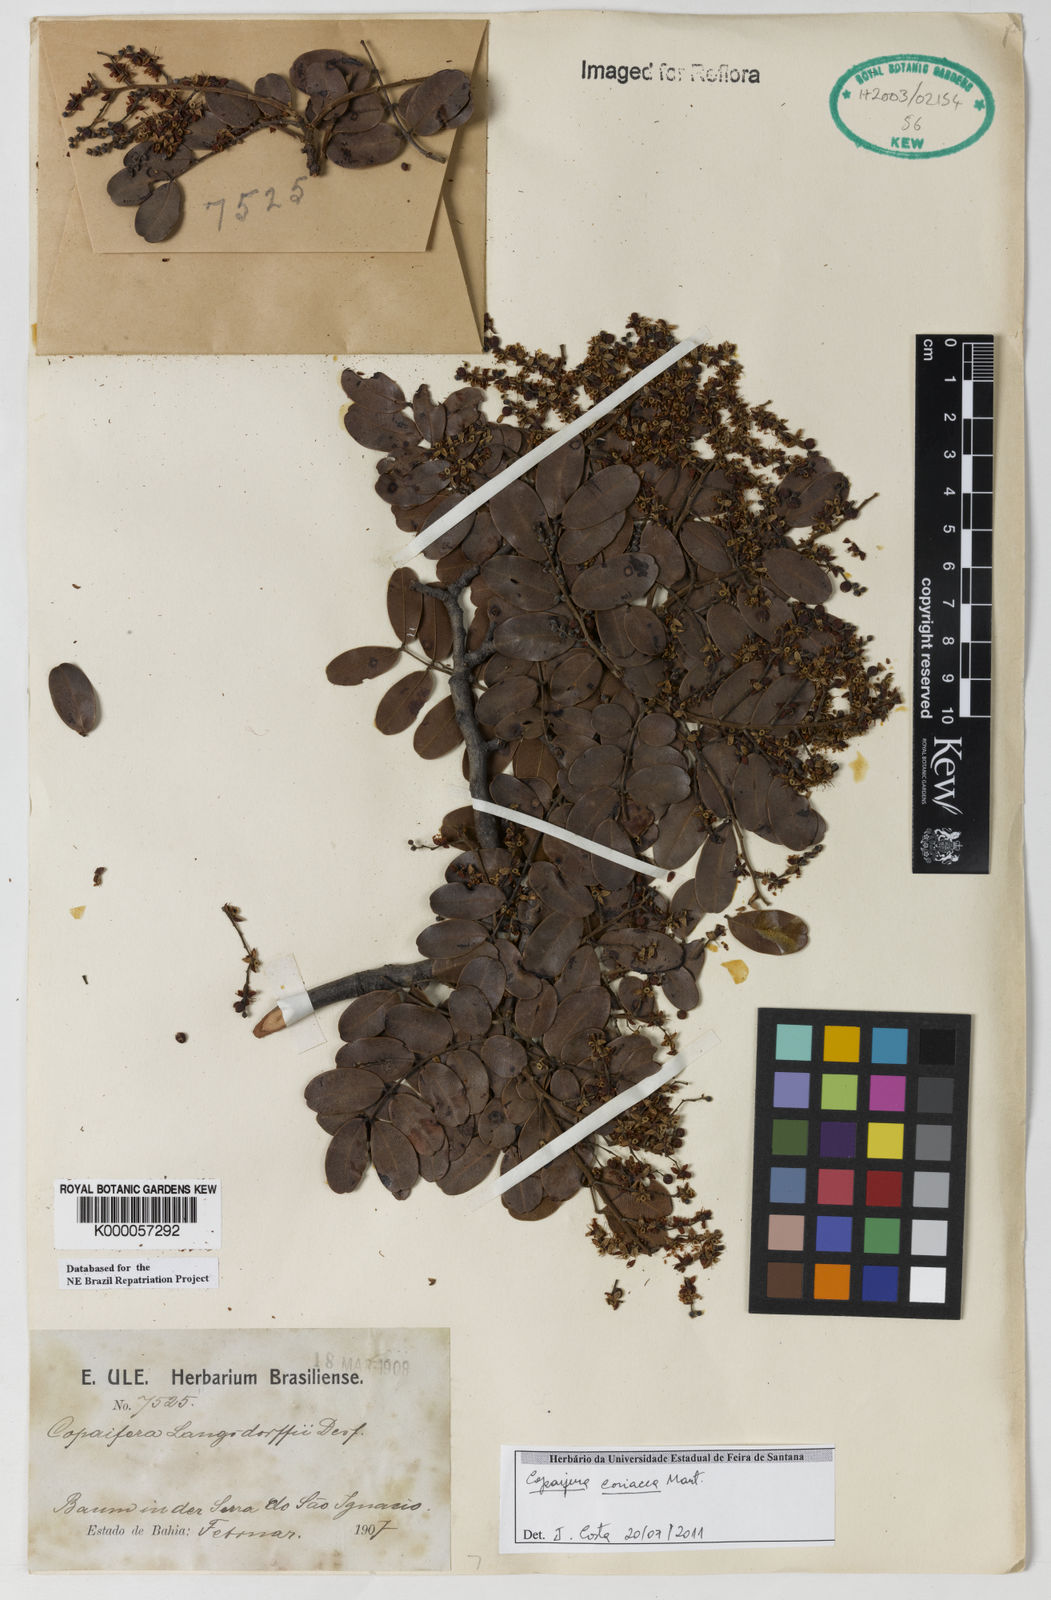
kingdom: Plantae
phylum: Tracheophyta
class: Magnoliopsida
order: Fabales
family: Fabaceae
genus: Copaifera
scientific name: Copaifera coriacea
